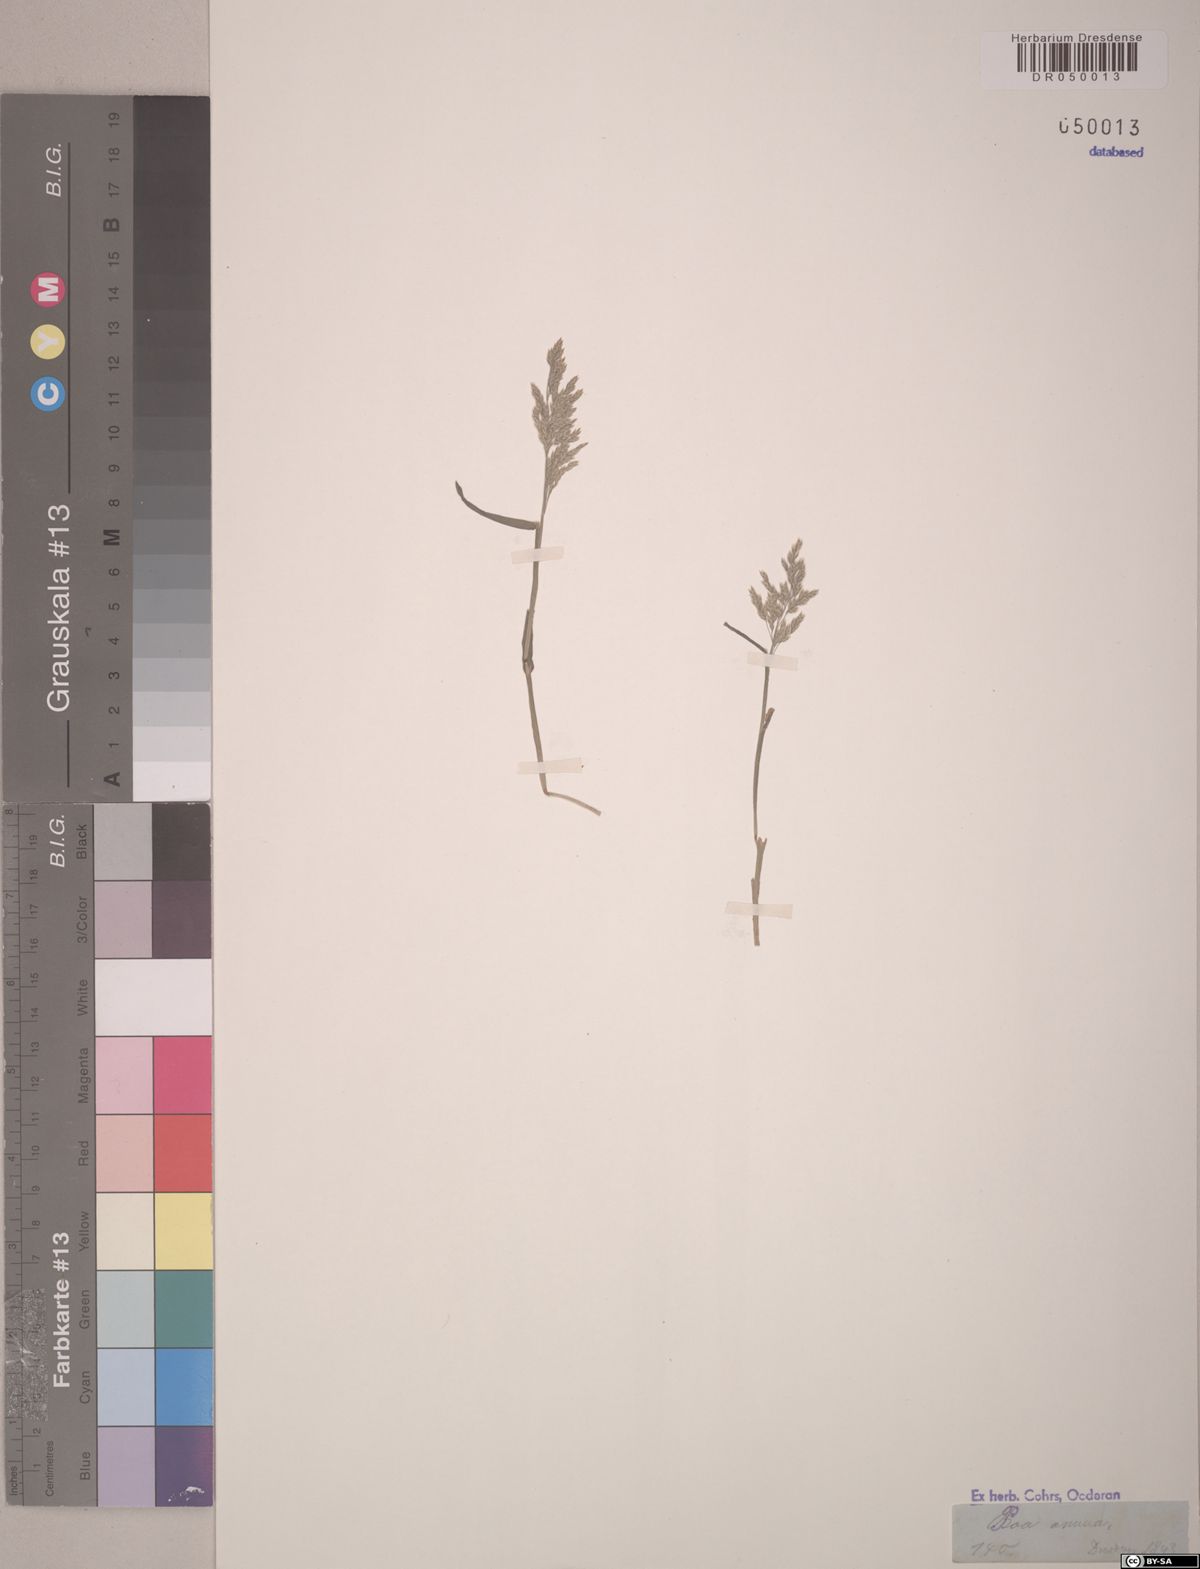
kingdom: Plantae
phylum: Tracheophyta
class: Liliopsida
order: Poales
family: Poaceae
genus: Poa
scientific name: Poa annua
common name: Annual bluegrass
